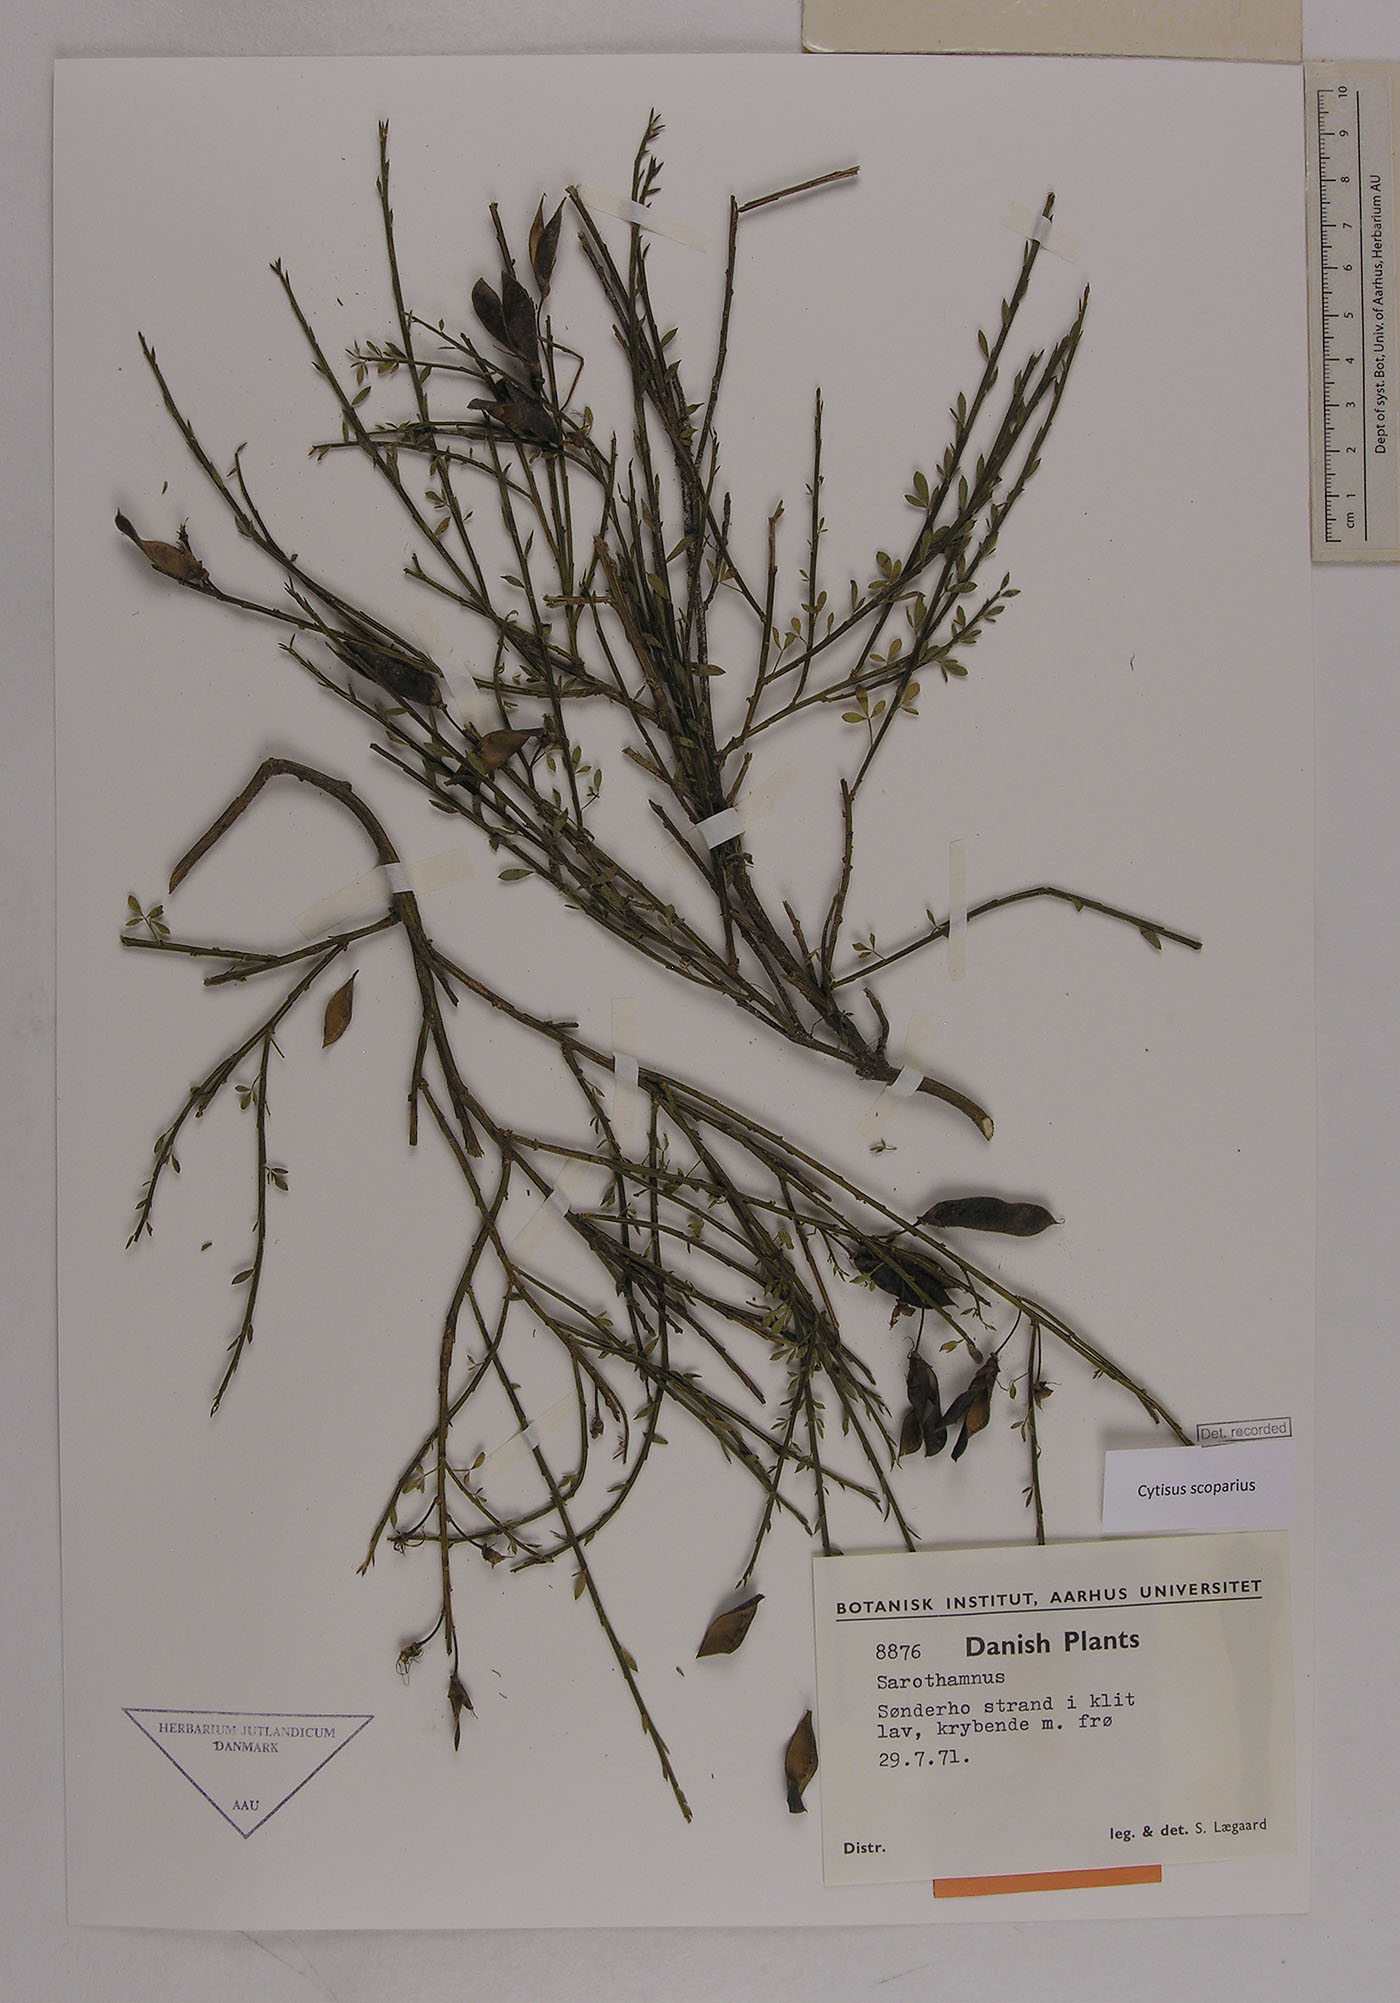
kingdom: Plantae
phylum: Tracheophyta
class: Magnoliopsida
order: Fabales
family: Fabaceae
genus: Cytisus
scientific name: Cytisus scoparius
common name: Scotch broom
